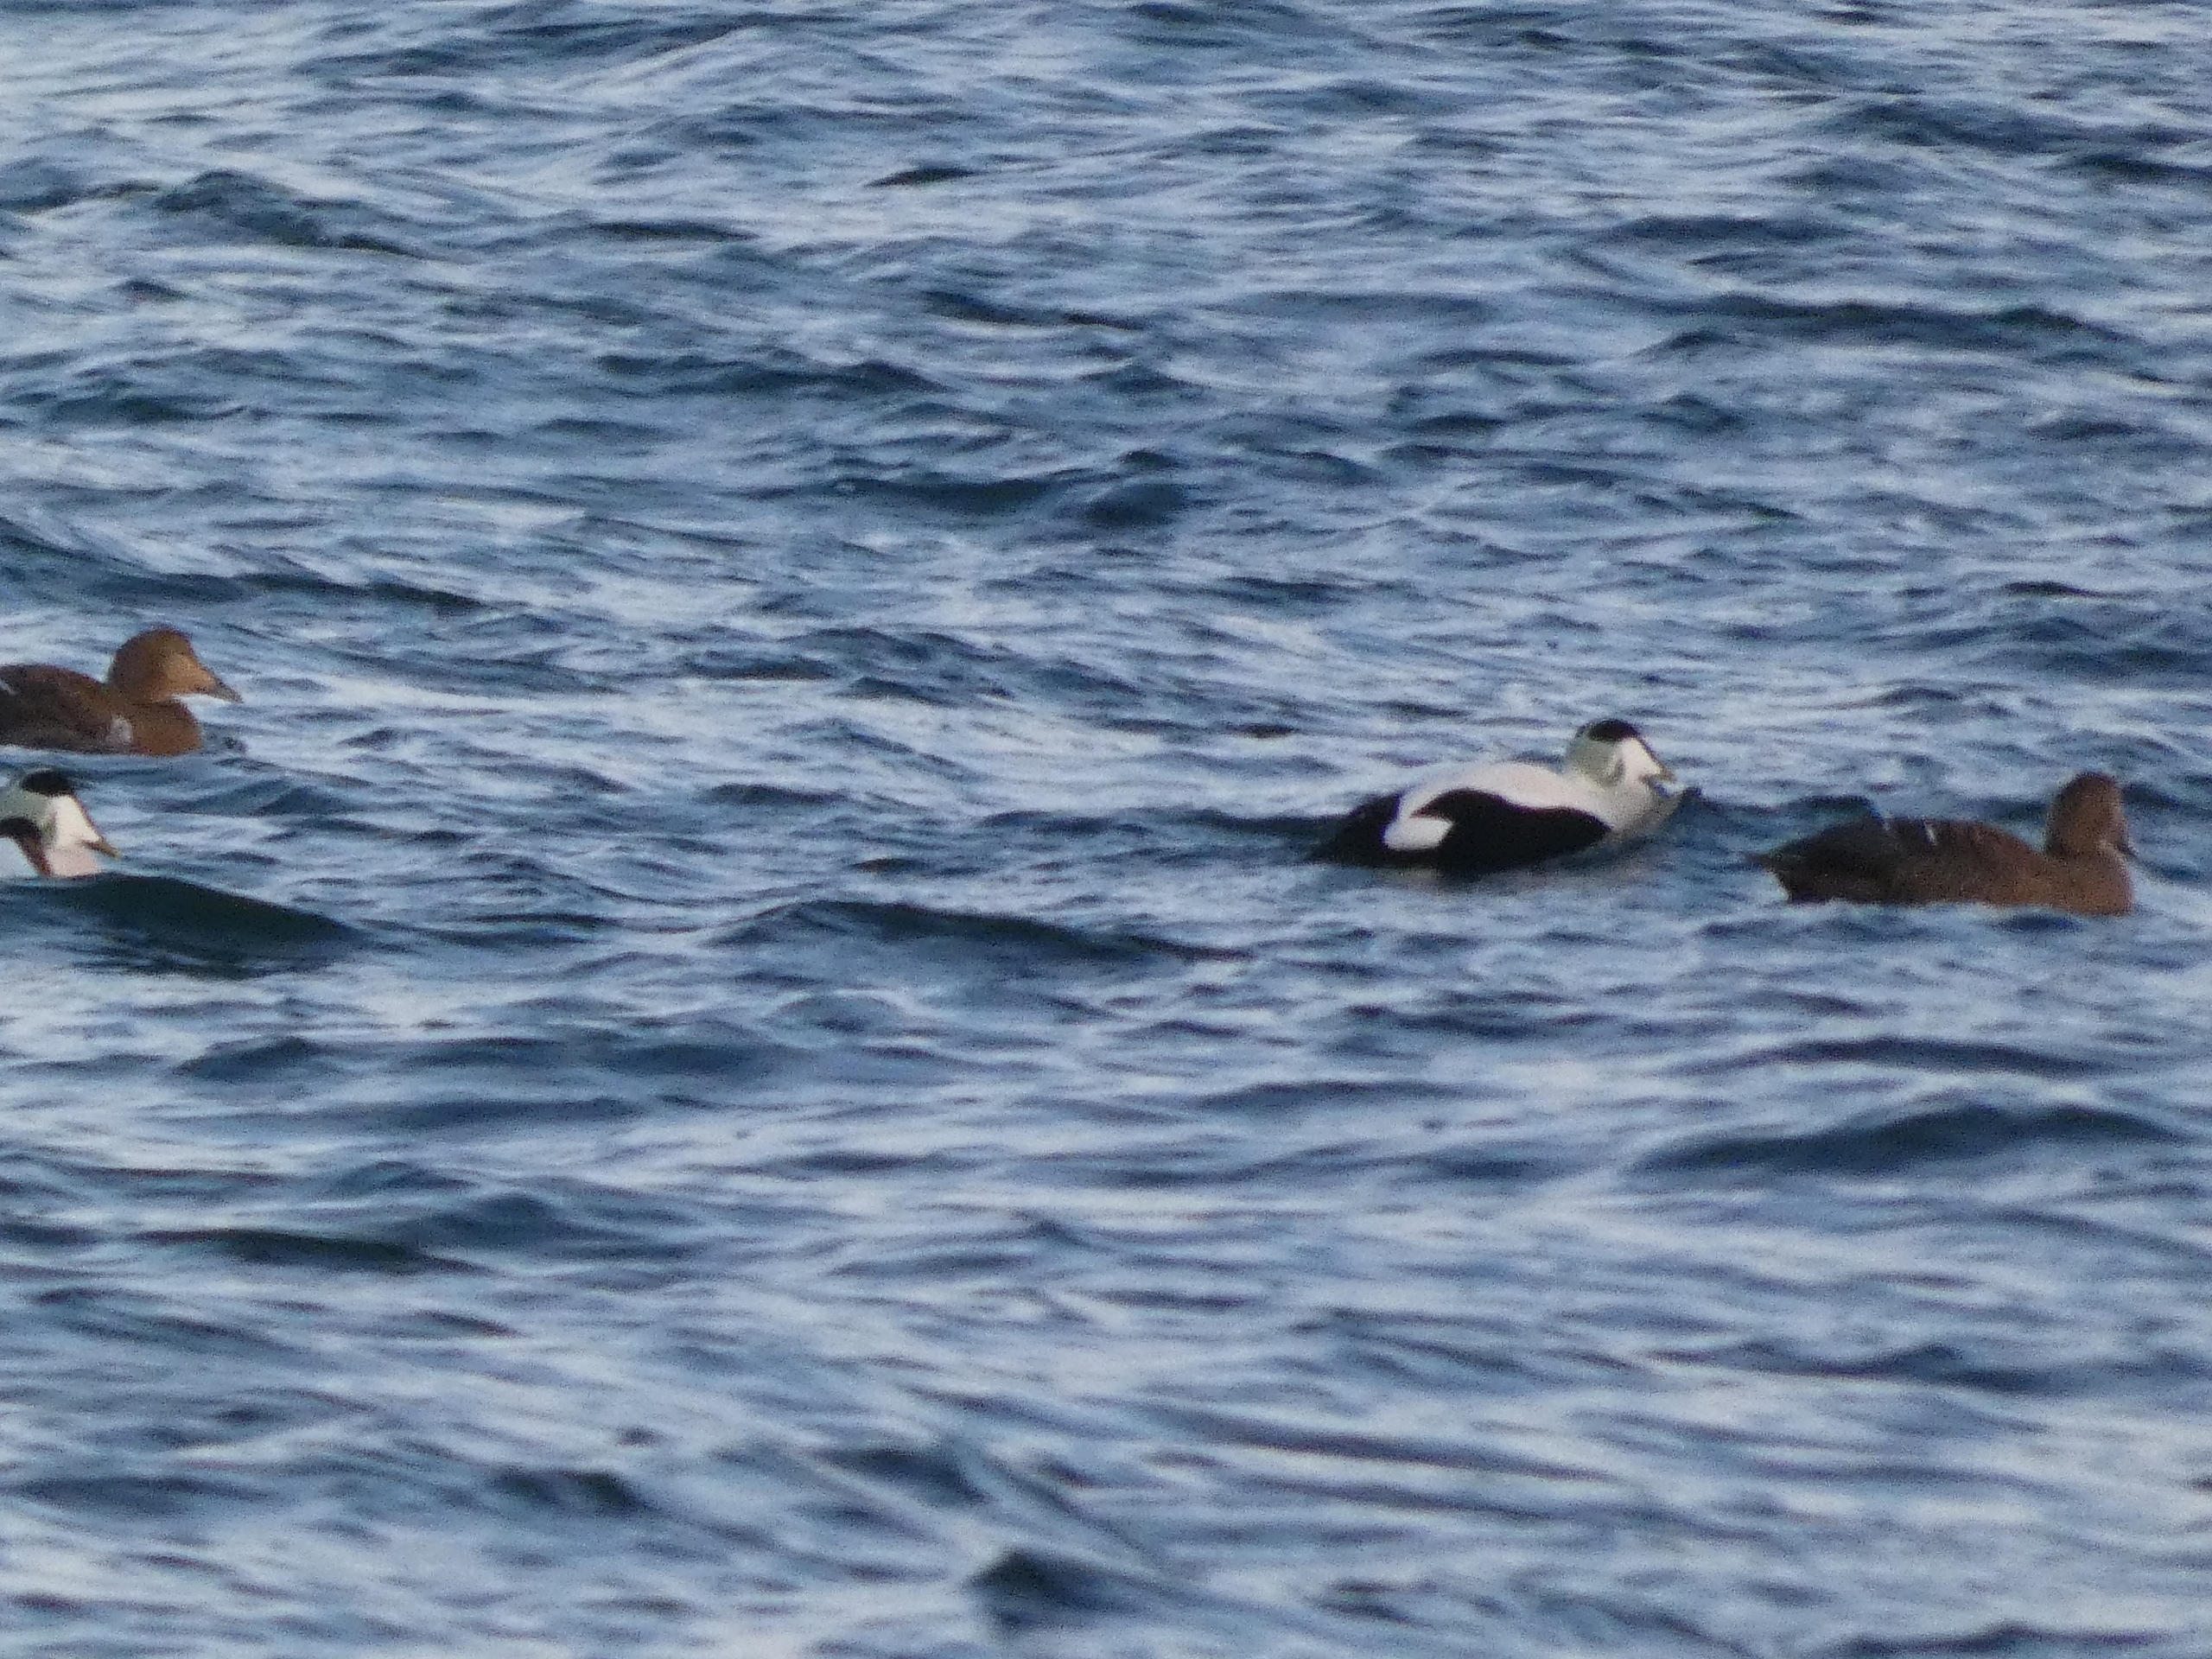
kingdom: Animalia
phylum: Chordata
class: Aves
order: Anseriformes
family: Anatidae
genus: Somateria
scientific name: Somateria mollissima
